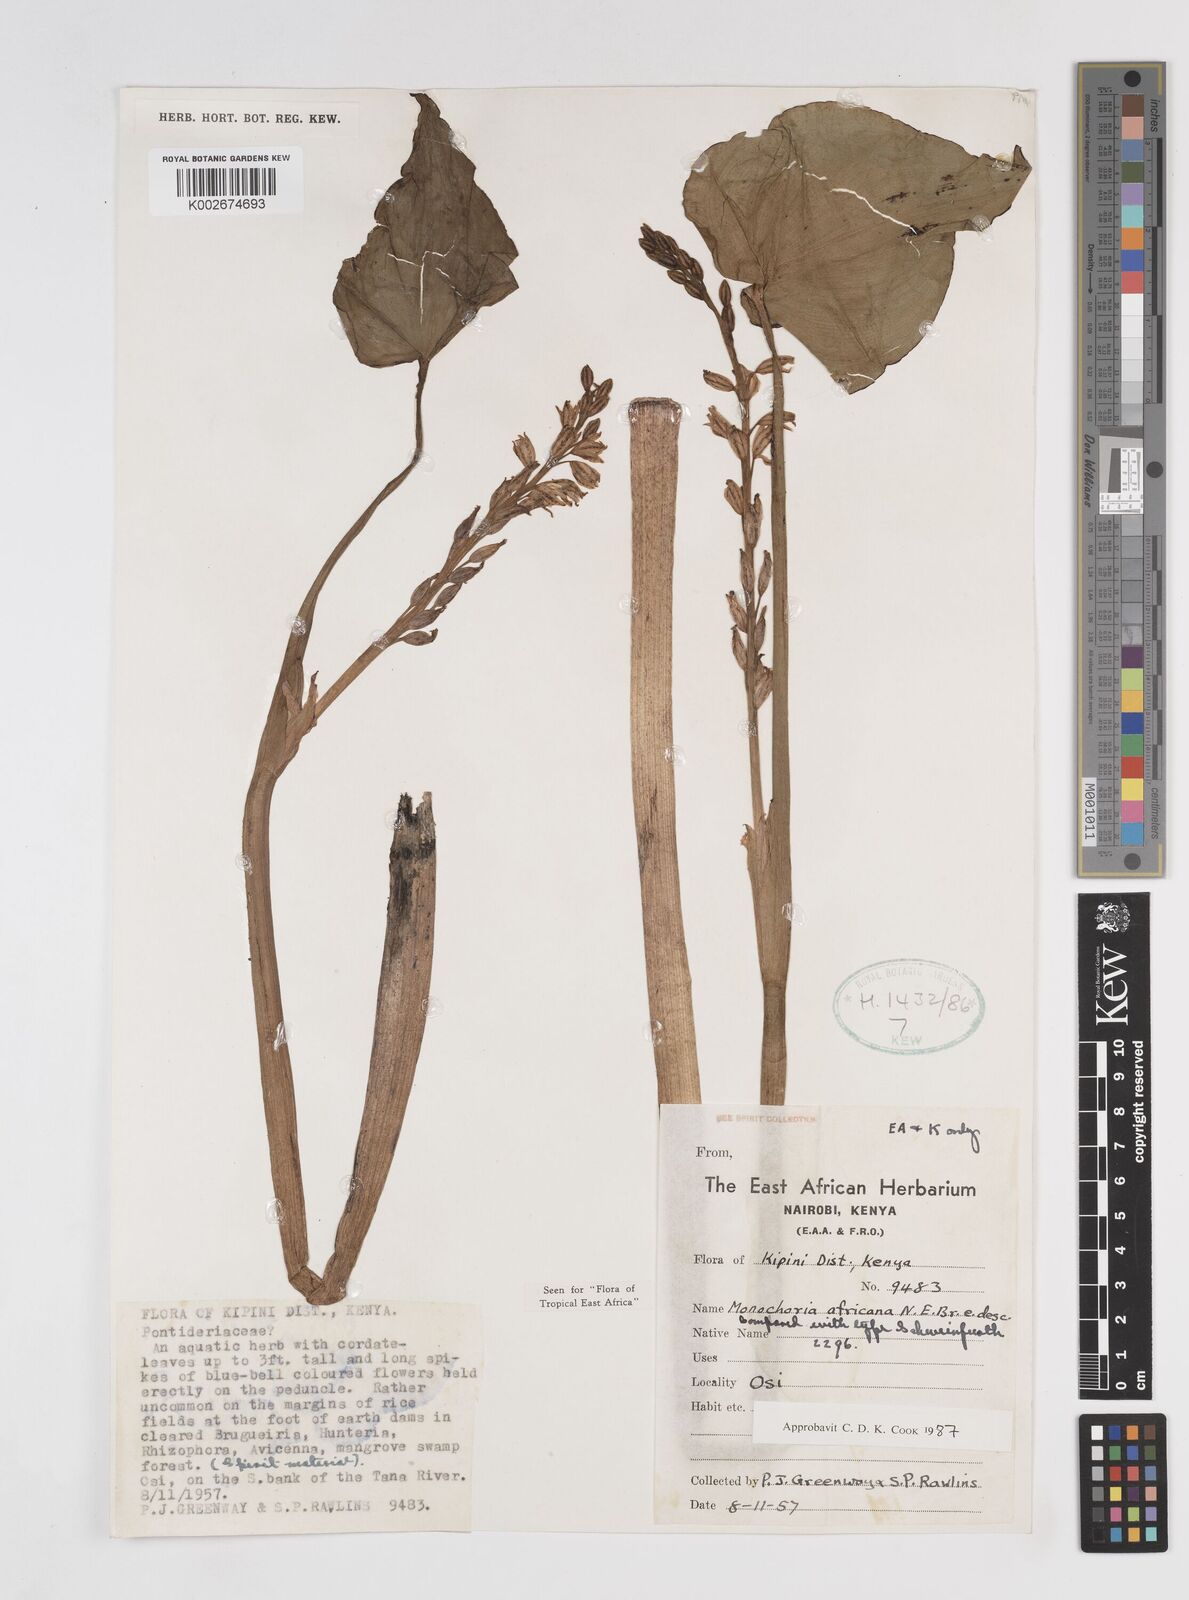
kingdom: Plantae
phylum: Tracheophyta
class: Liliopsida
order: Commelinales
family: Pontederiaceae
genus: Pontederia
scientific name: Pontederia africana
